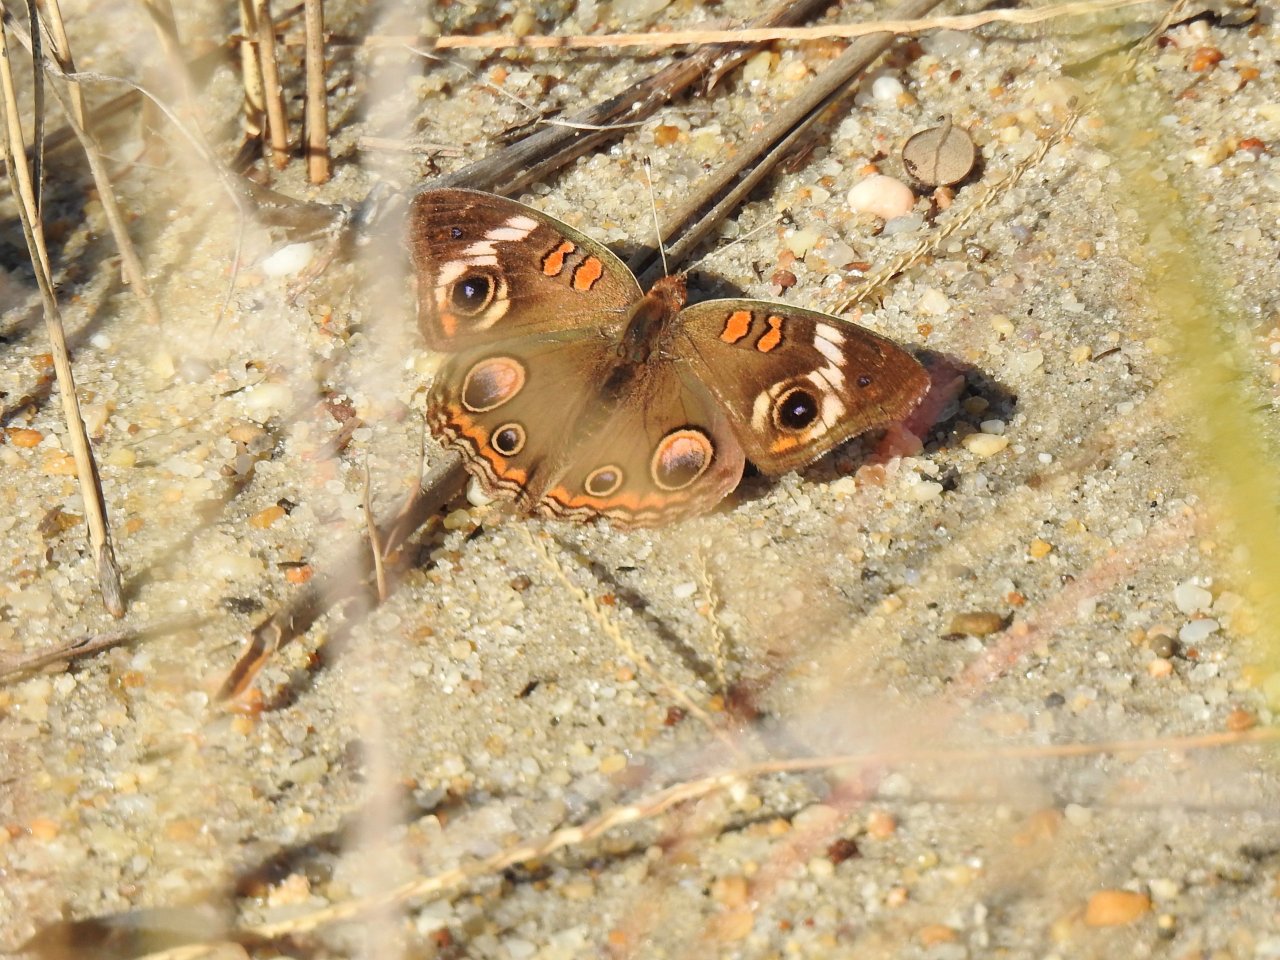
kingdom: Animalia
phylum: Arthropoda
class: Insecta
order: Lepidoptera
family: Nymphalidae
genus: Junonia
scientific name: Junonia coenia
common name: Common Buckeye
